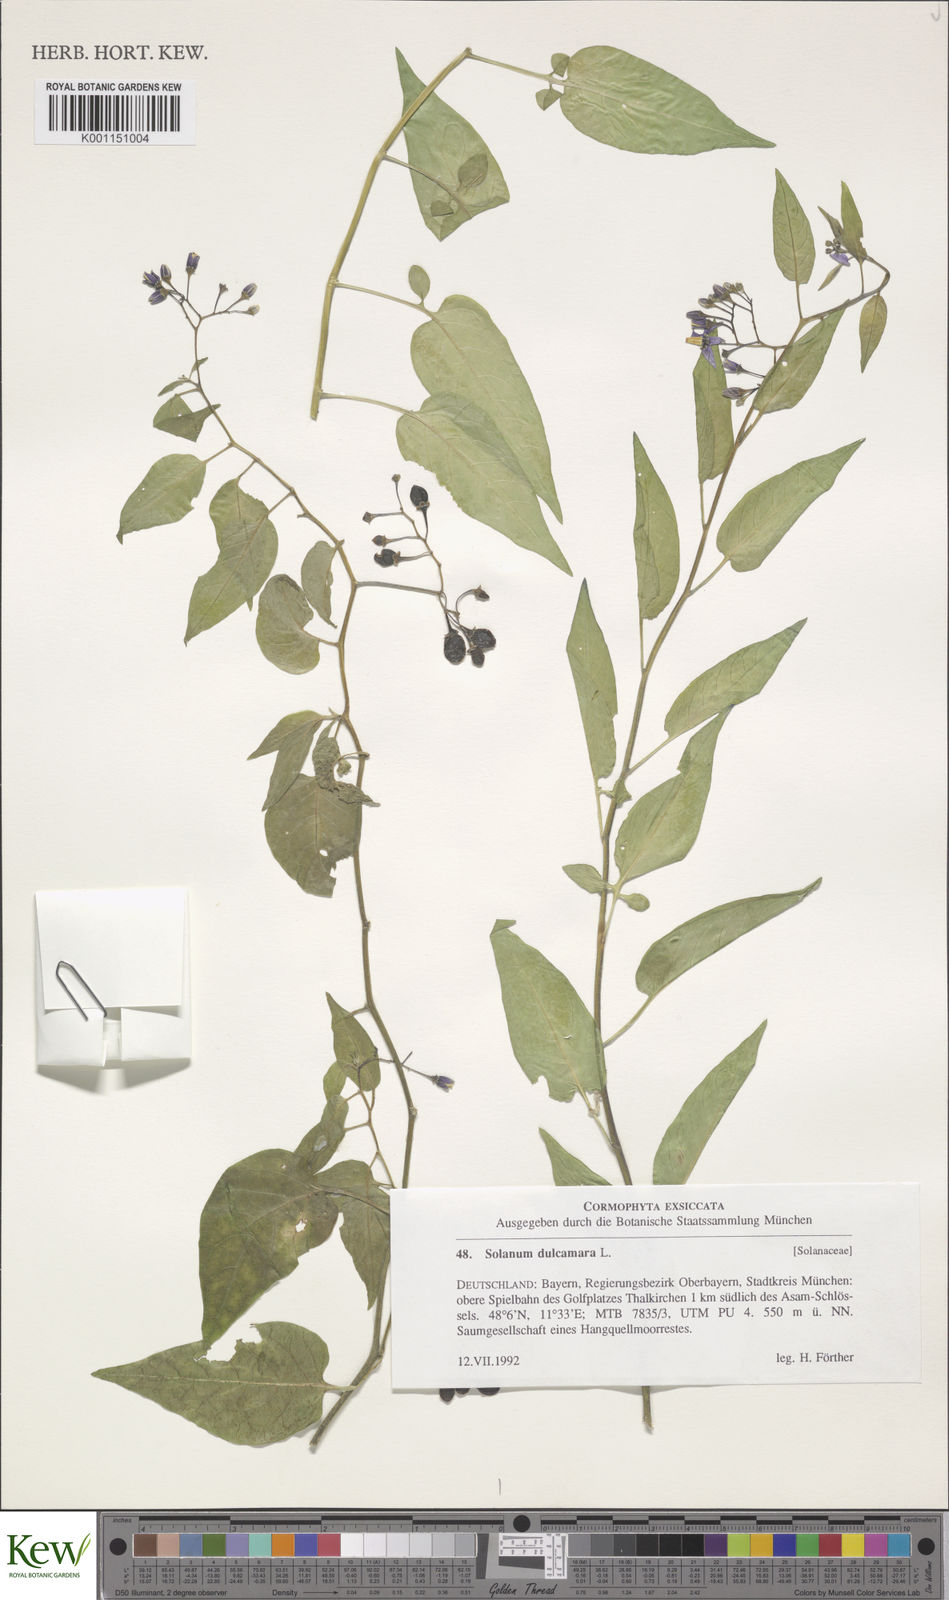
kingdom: Plantae
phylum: Tracheophyta
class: Magnoliopsida
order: Solanales
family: Solanaceae
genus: Solanum
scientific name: Solanum dulcamara
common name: Climbing nightshade
